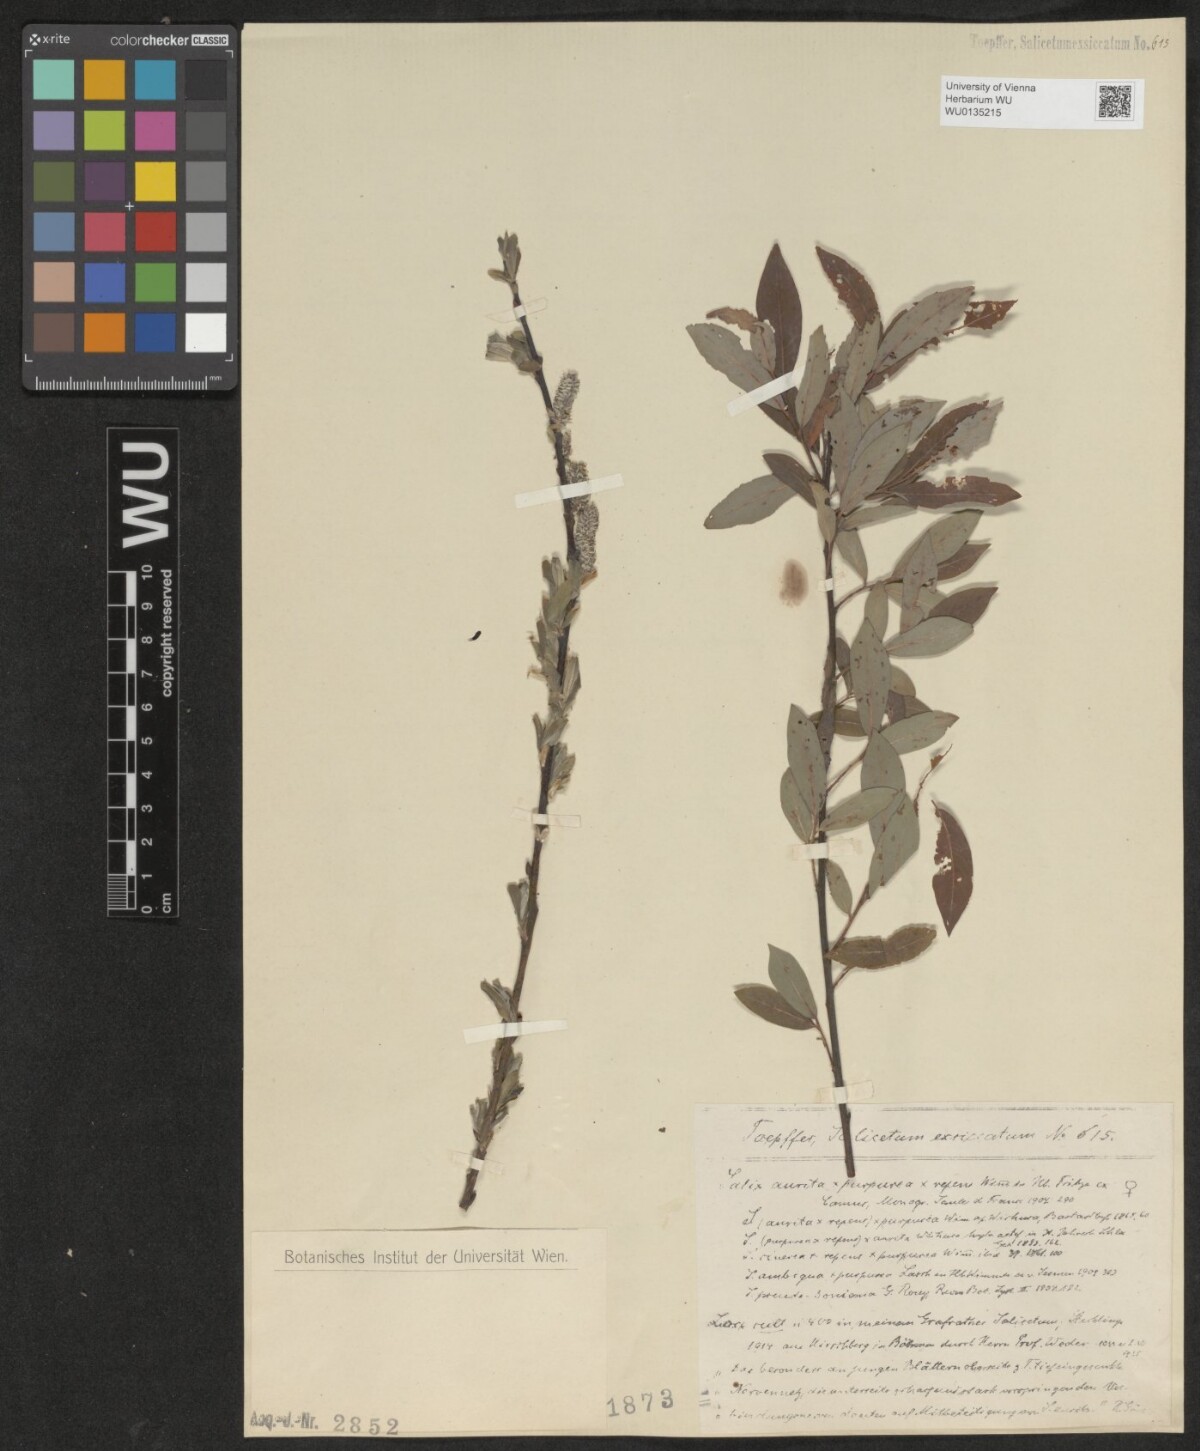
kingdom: Plantae
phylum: Tracheophyta
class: Magnoliopsida
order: Malpighiales
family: Salicaceae
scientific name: Salicaceae
